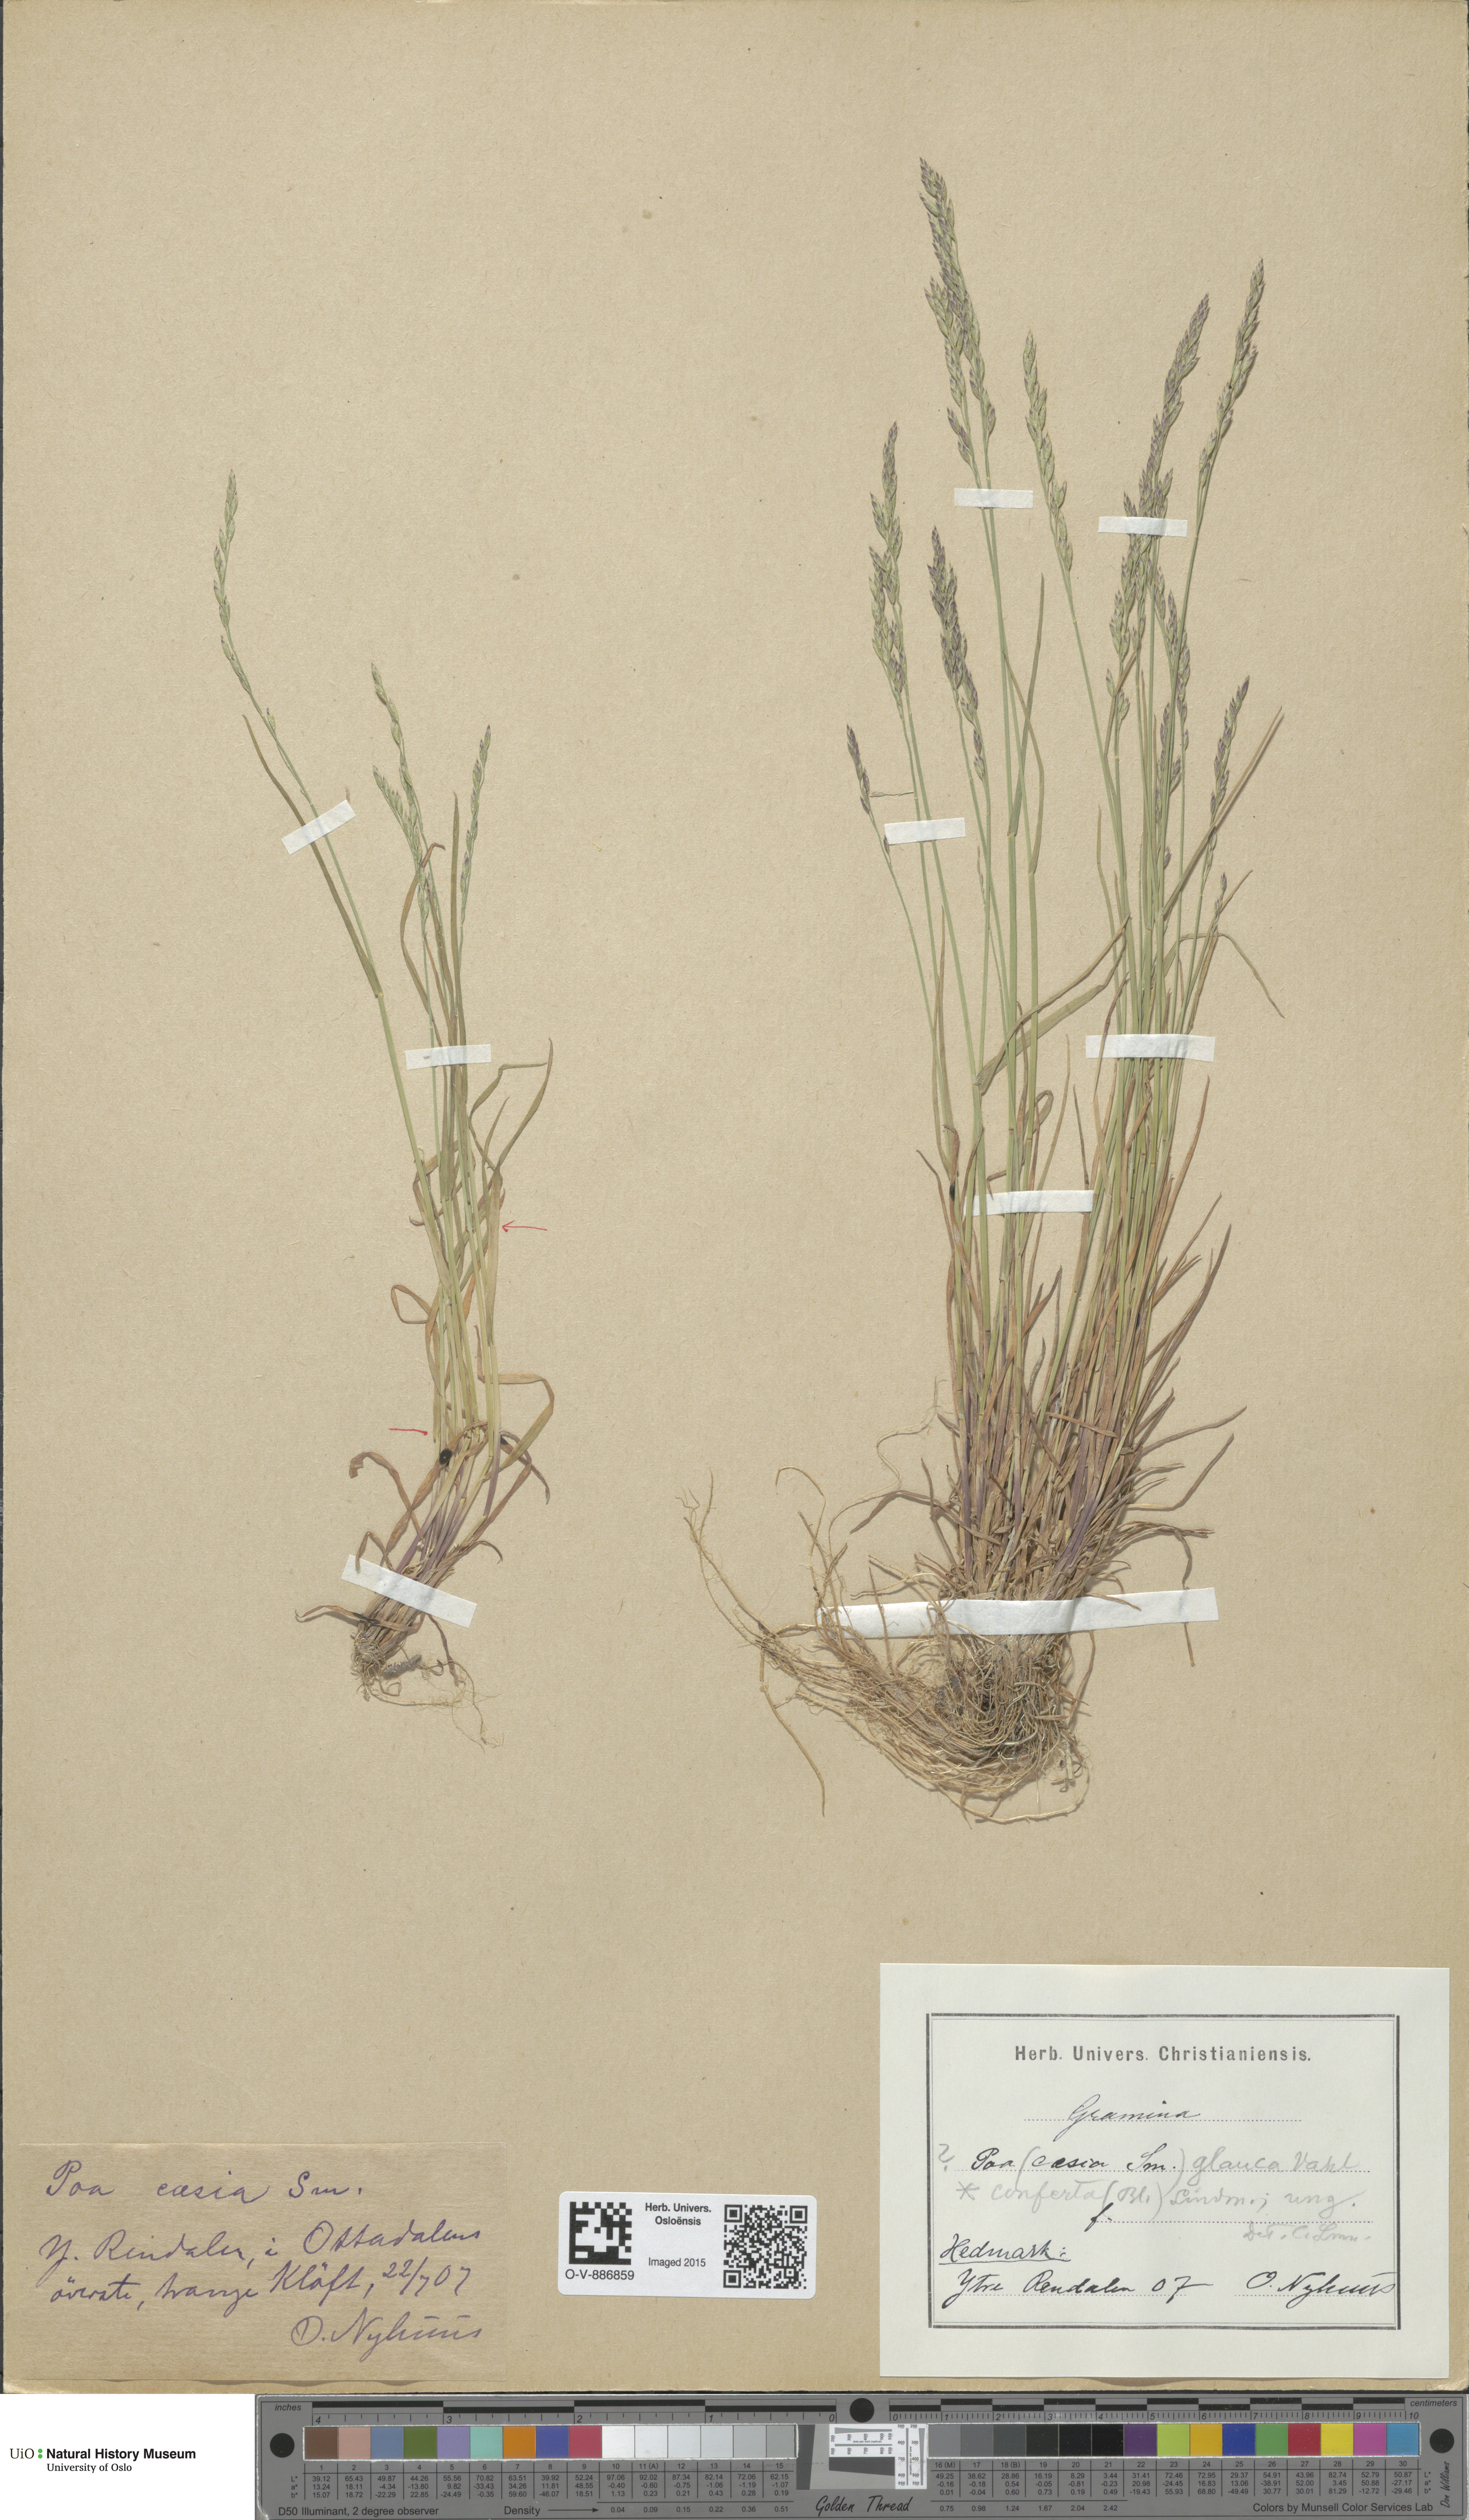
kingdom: Plantae
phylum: Tracheophyta
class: Liliopsida
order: Poales
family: Poaceae
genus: Poa
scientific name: Poa glauca
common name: Glaucous bluegrass
